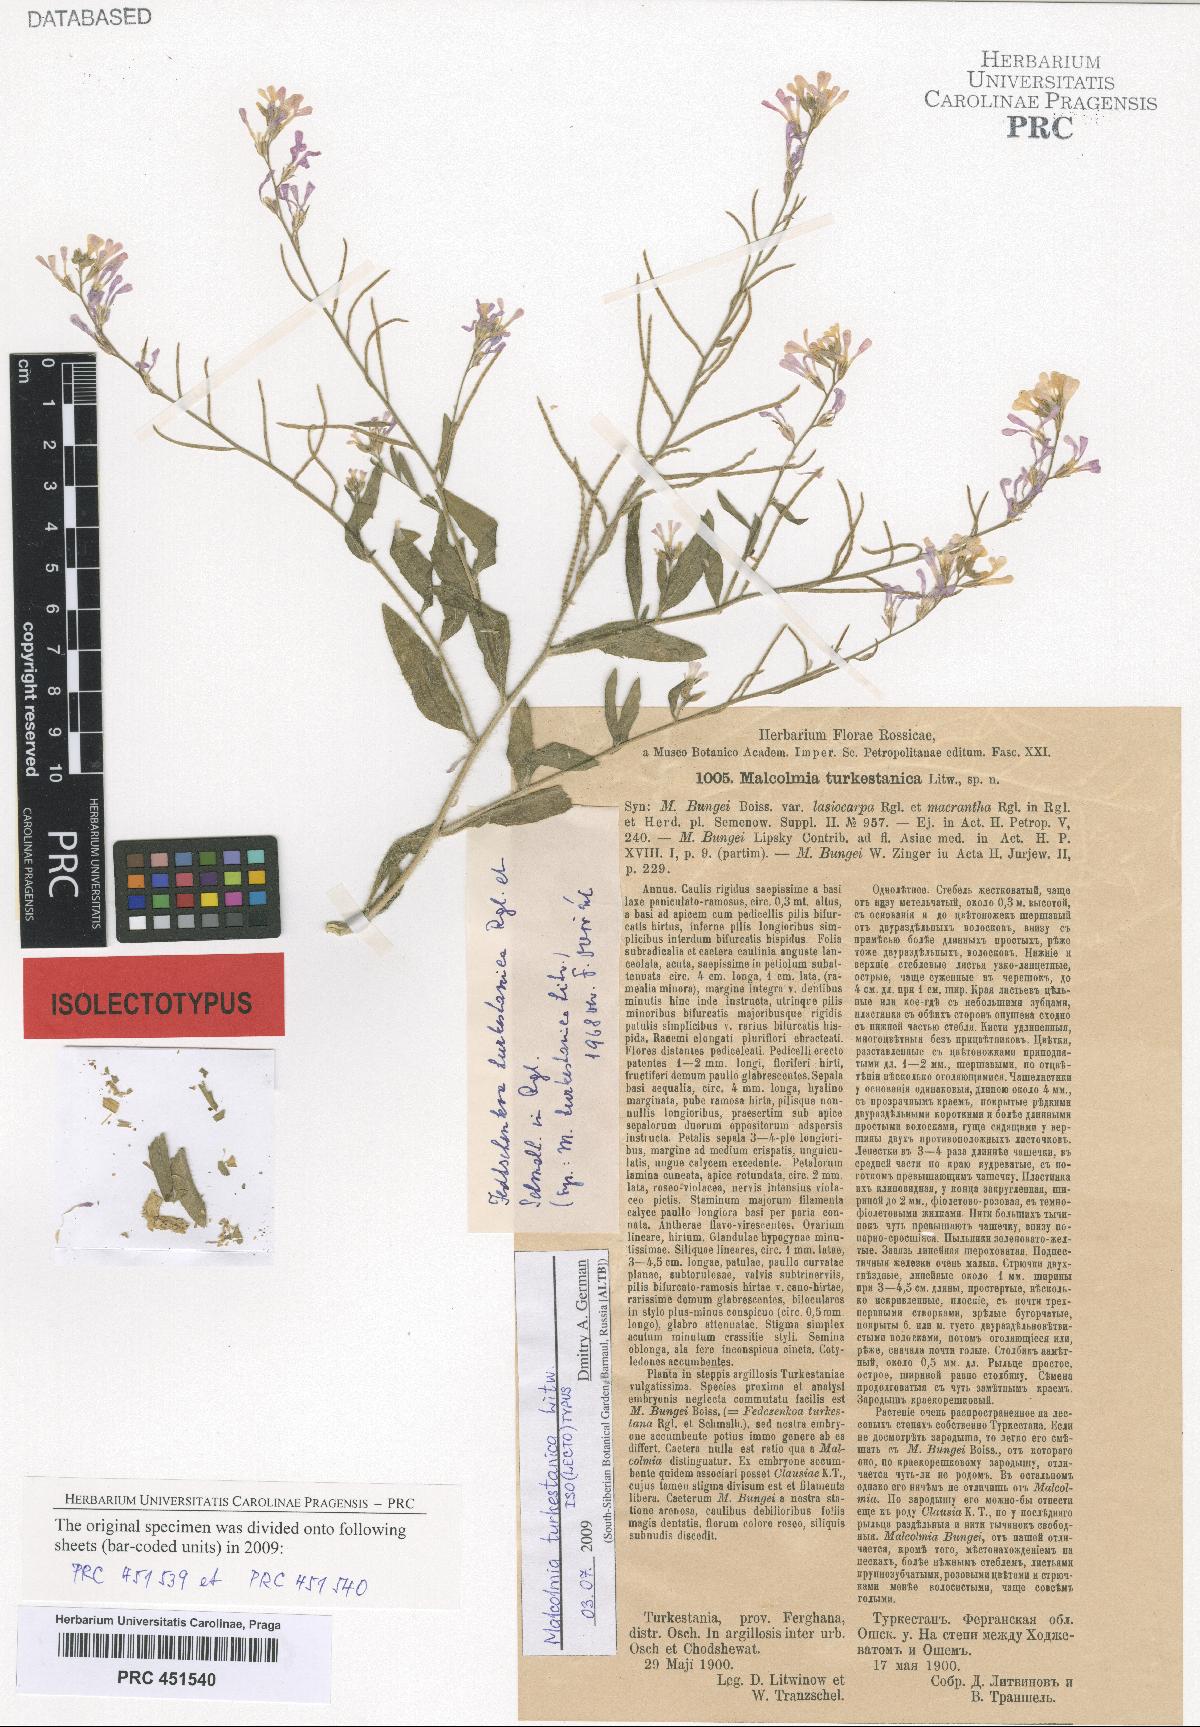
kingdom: Plantae
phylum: Tracheophyta
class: Magnoliopsida
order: Brassicales
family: Brassicaceae
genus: Strigosella
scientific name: Strigosella turkestanica
